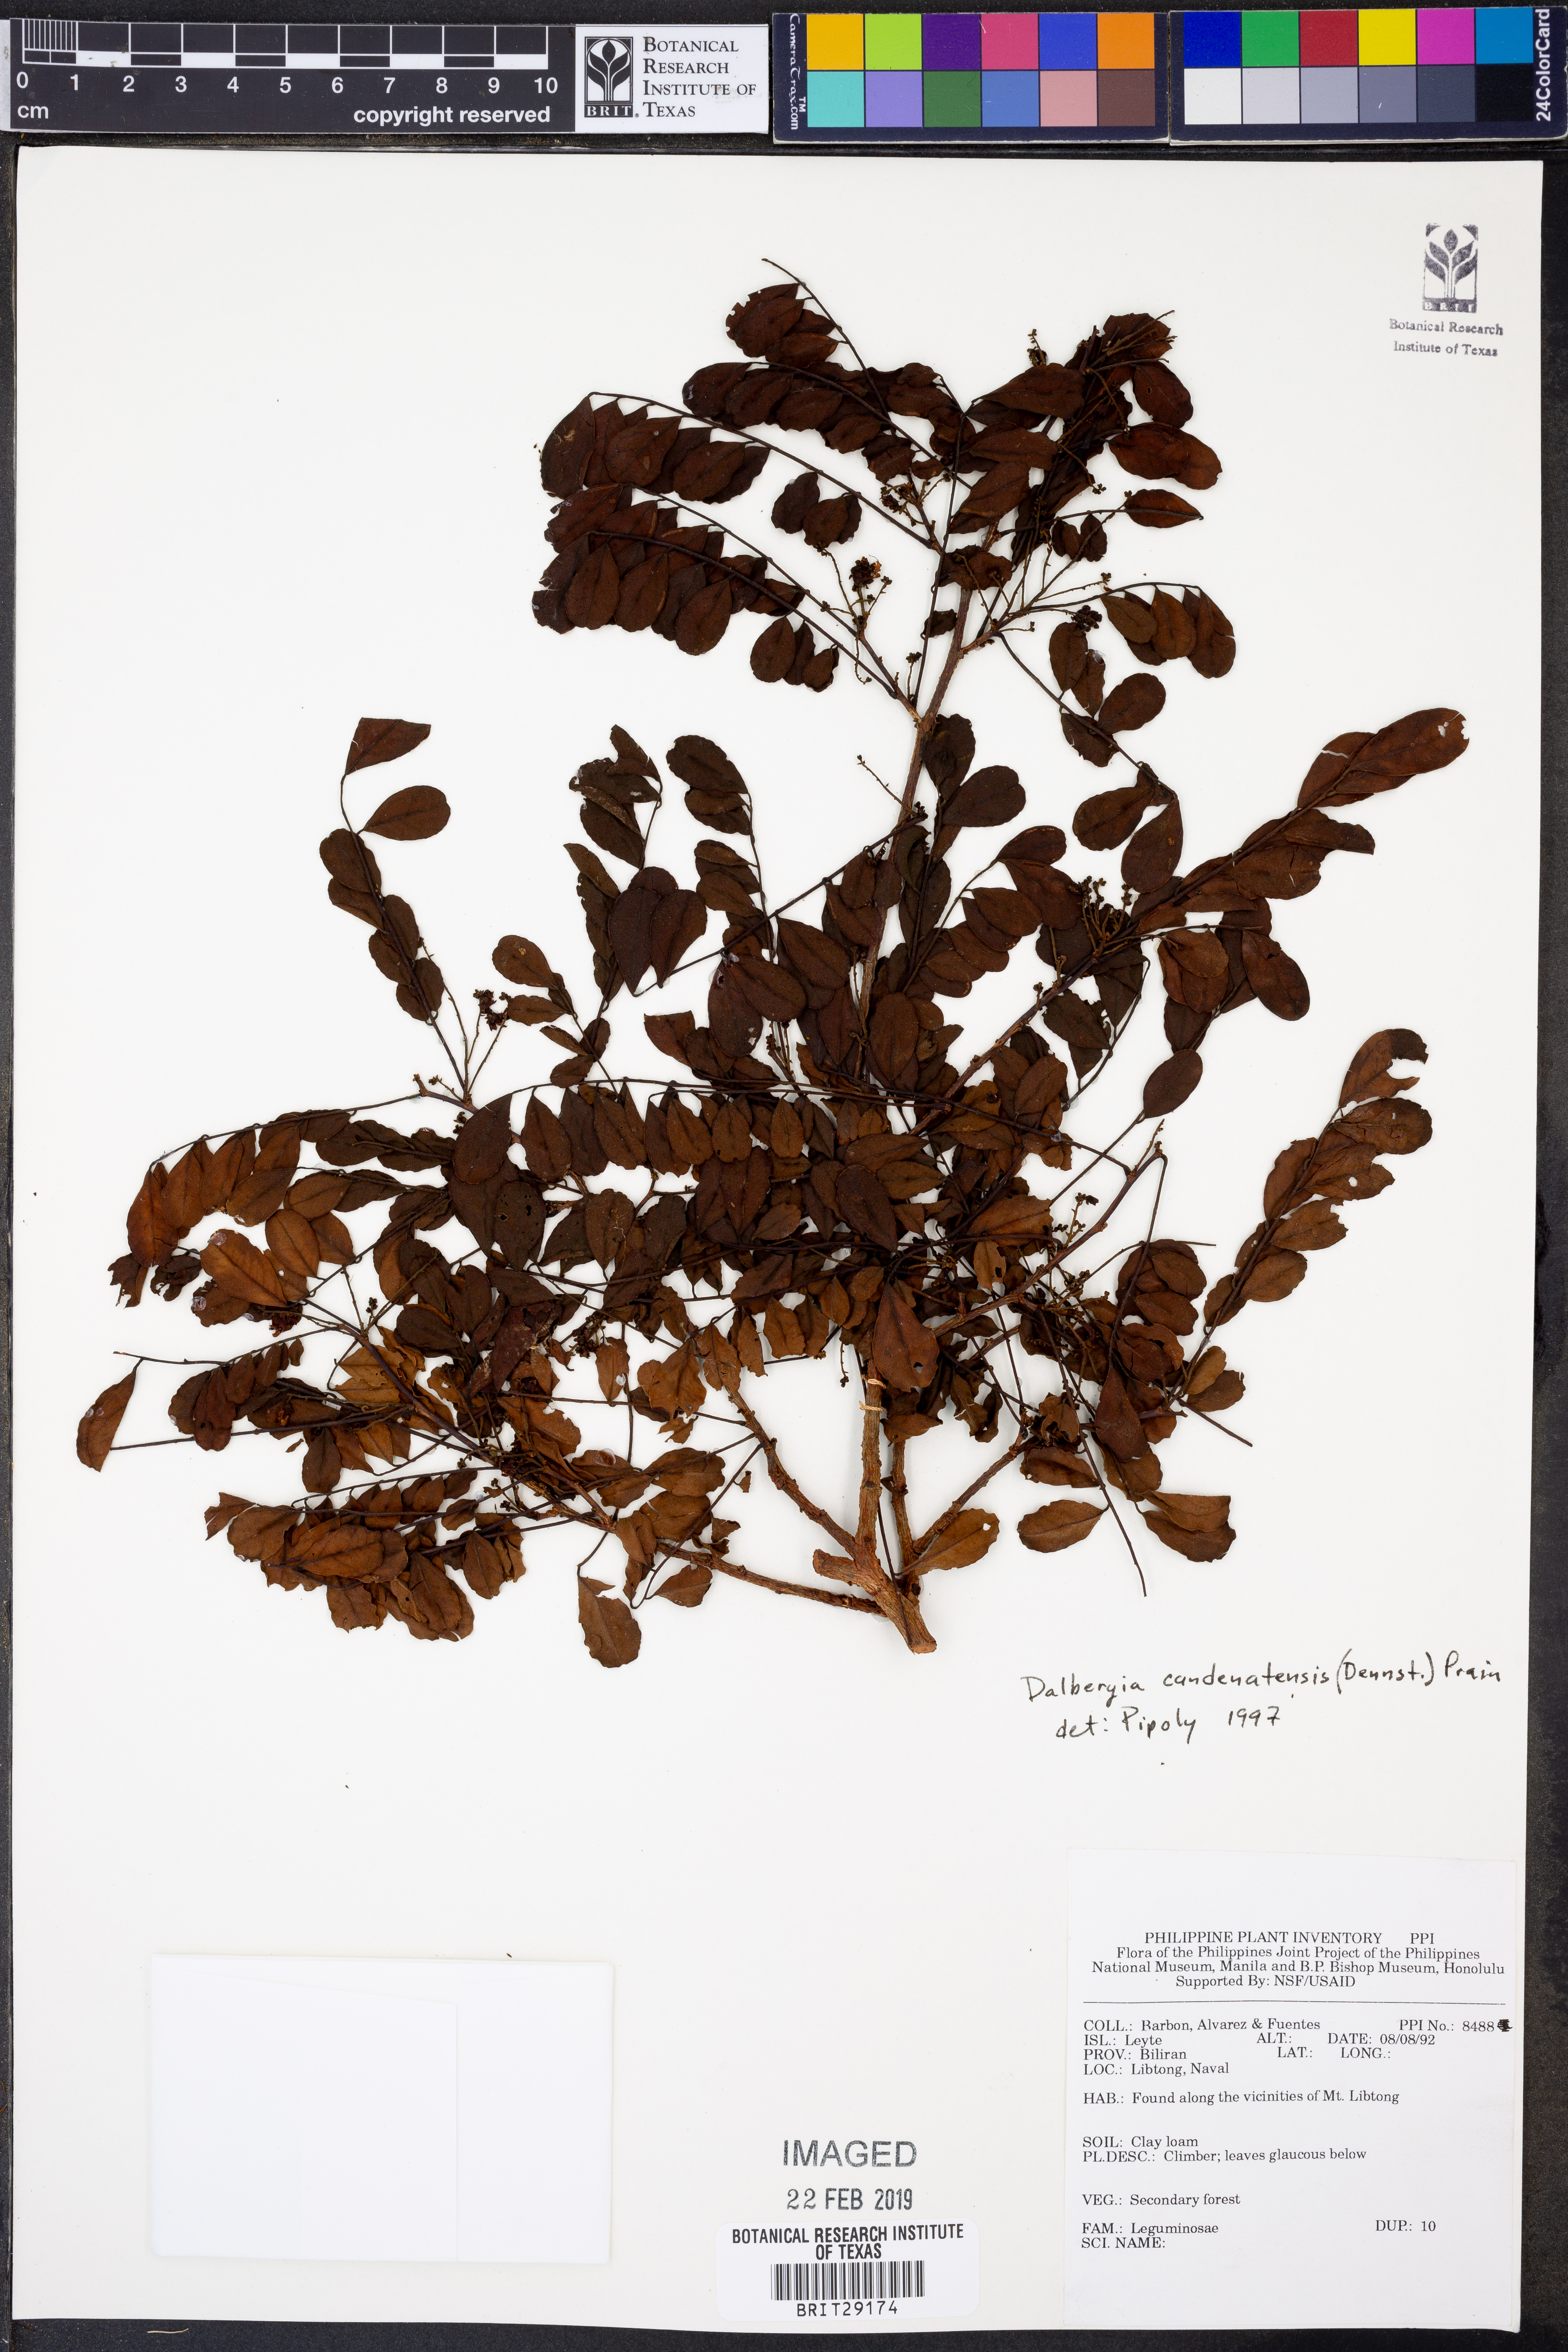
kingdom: Plantae
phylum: Tracheophyta
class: Magnoliopsida
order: Fabales
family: Fabaceae
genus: Dalbergia
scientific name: Dalbergia candenatensis
